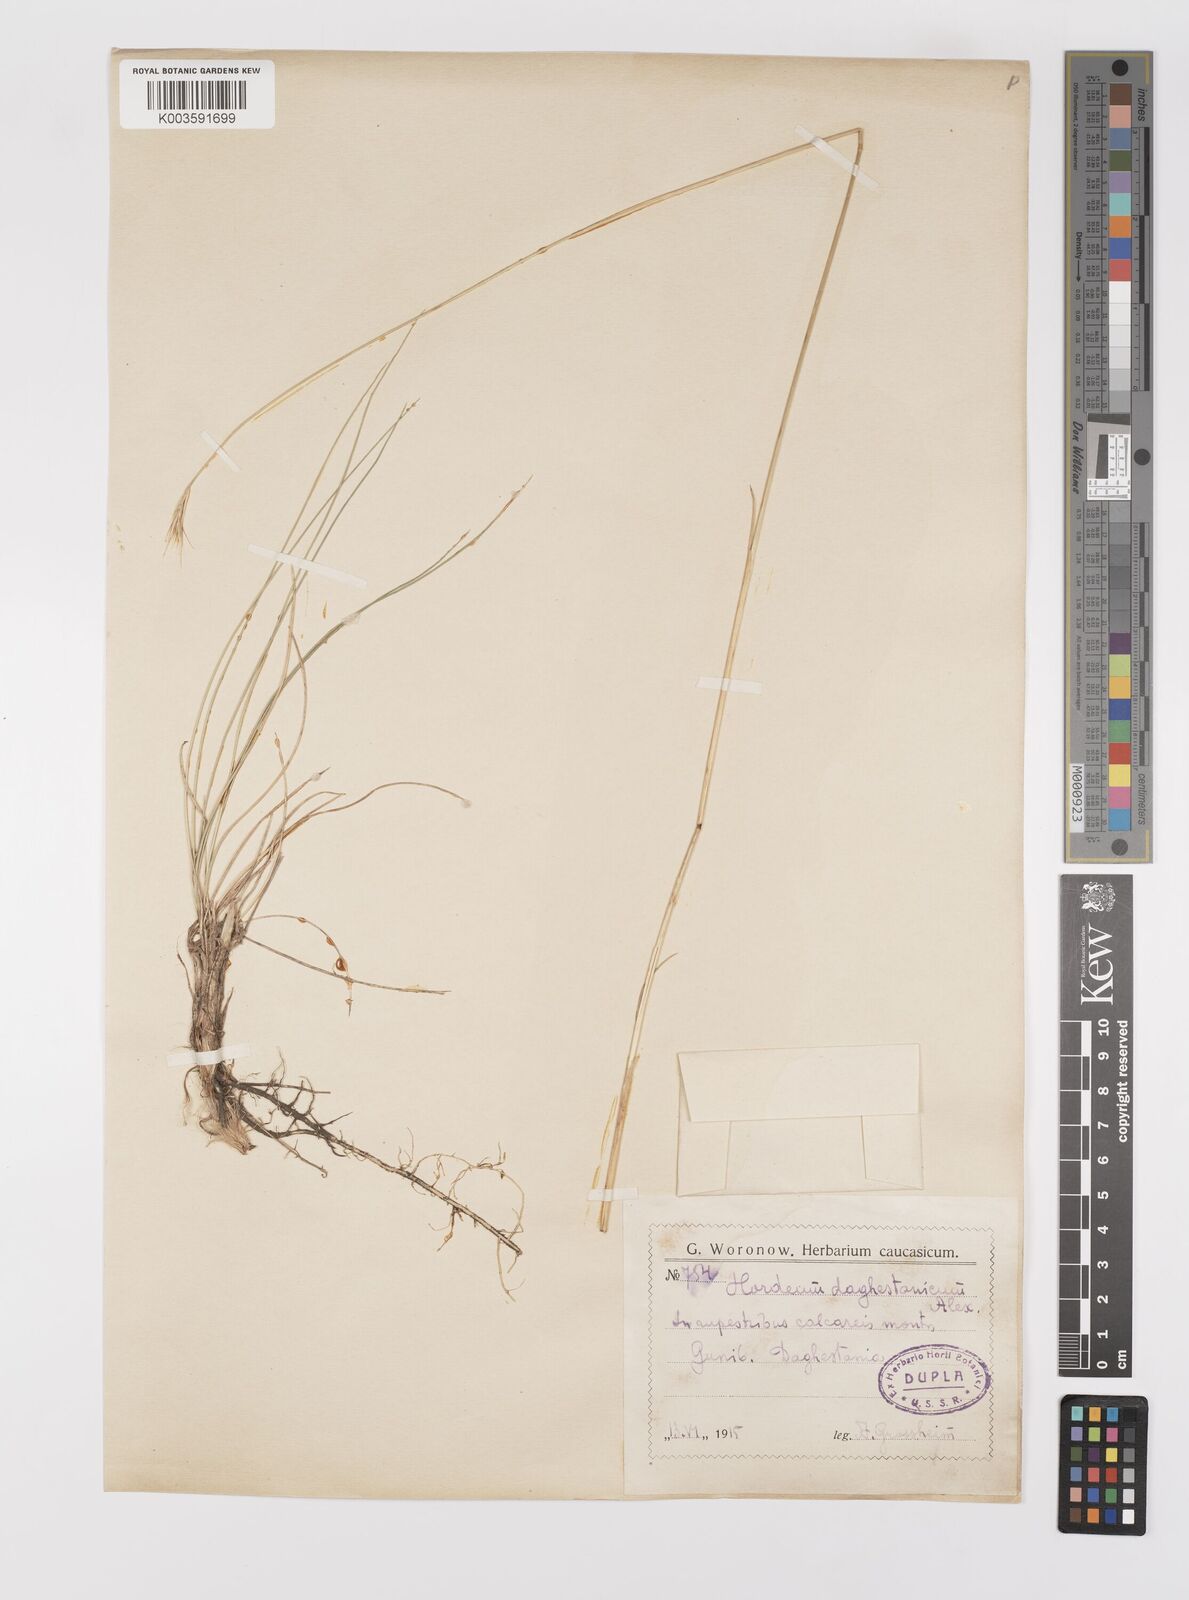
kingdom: Plantae
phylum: Tracheophyta
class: Liliopsida
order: Poales
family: Poaceae
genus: Psathyrostachys
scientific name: Psathyrostachys dagestanica
